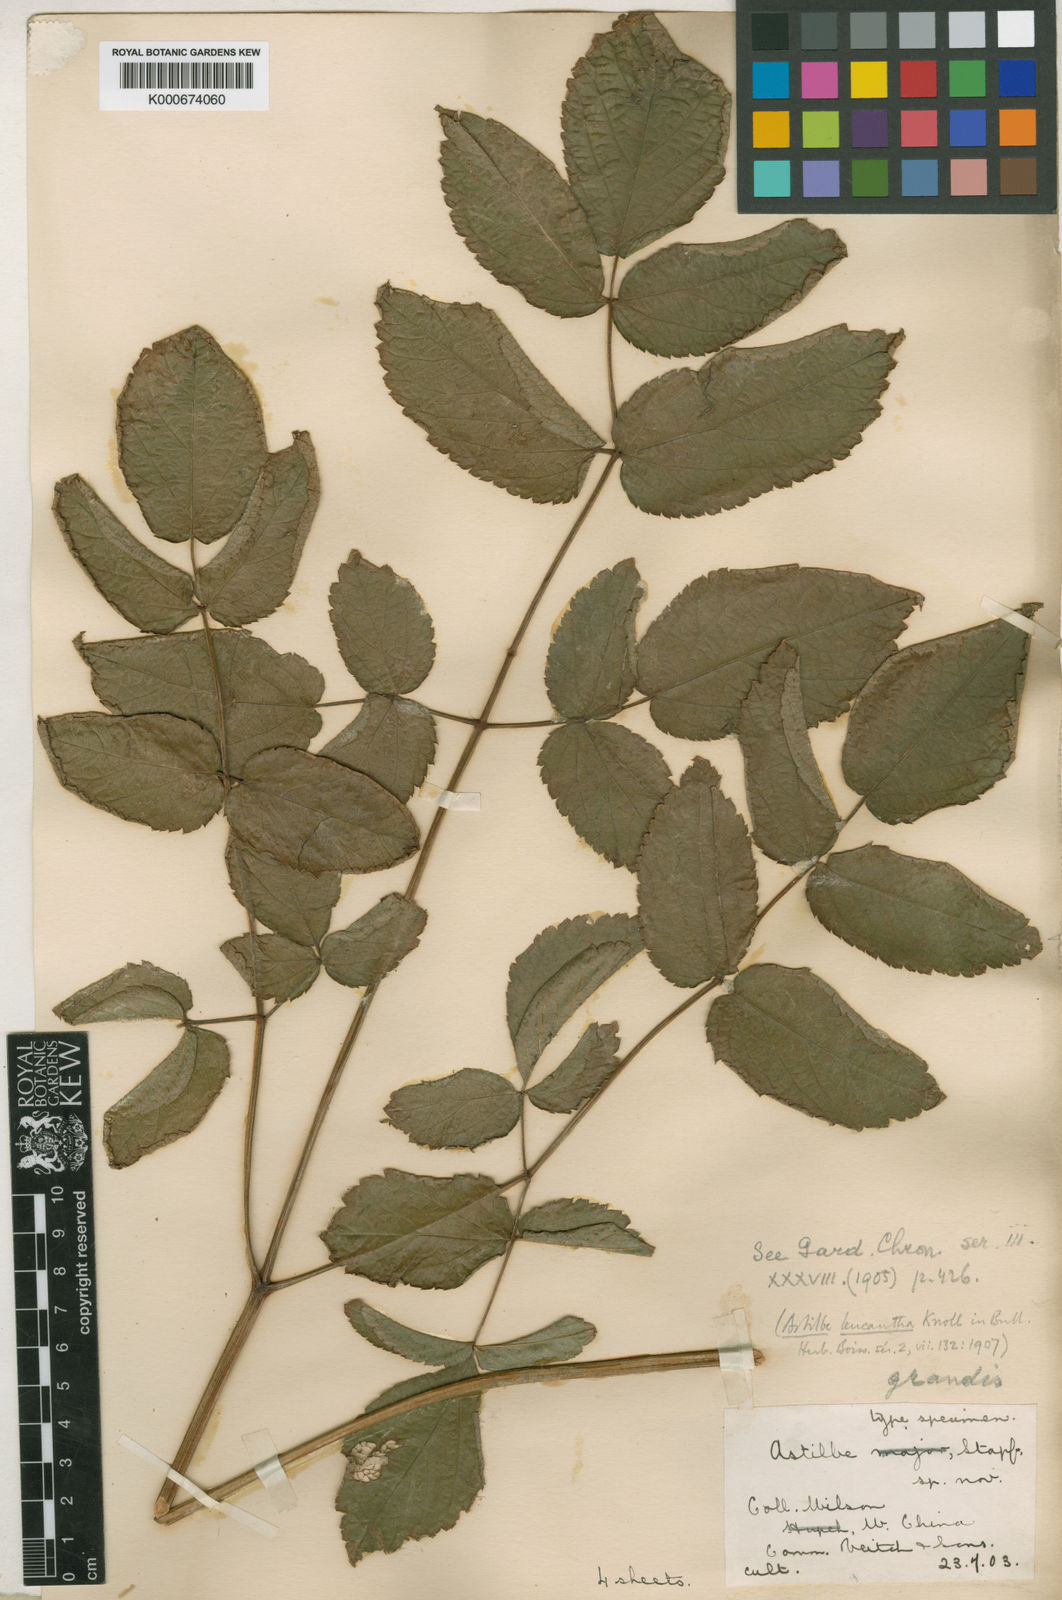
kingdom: Plantae
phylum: Tracheophyta
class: Magnoliopsida
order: Saxifragales
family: Saxifragaceae
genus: Astilbe
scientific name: Astilbe grandis
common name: Korean astilbe
